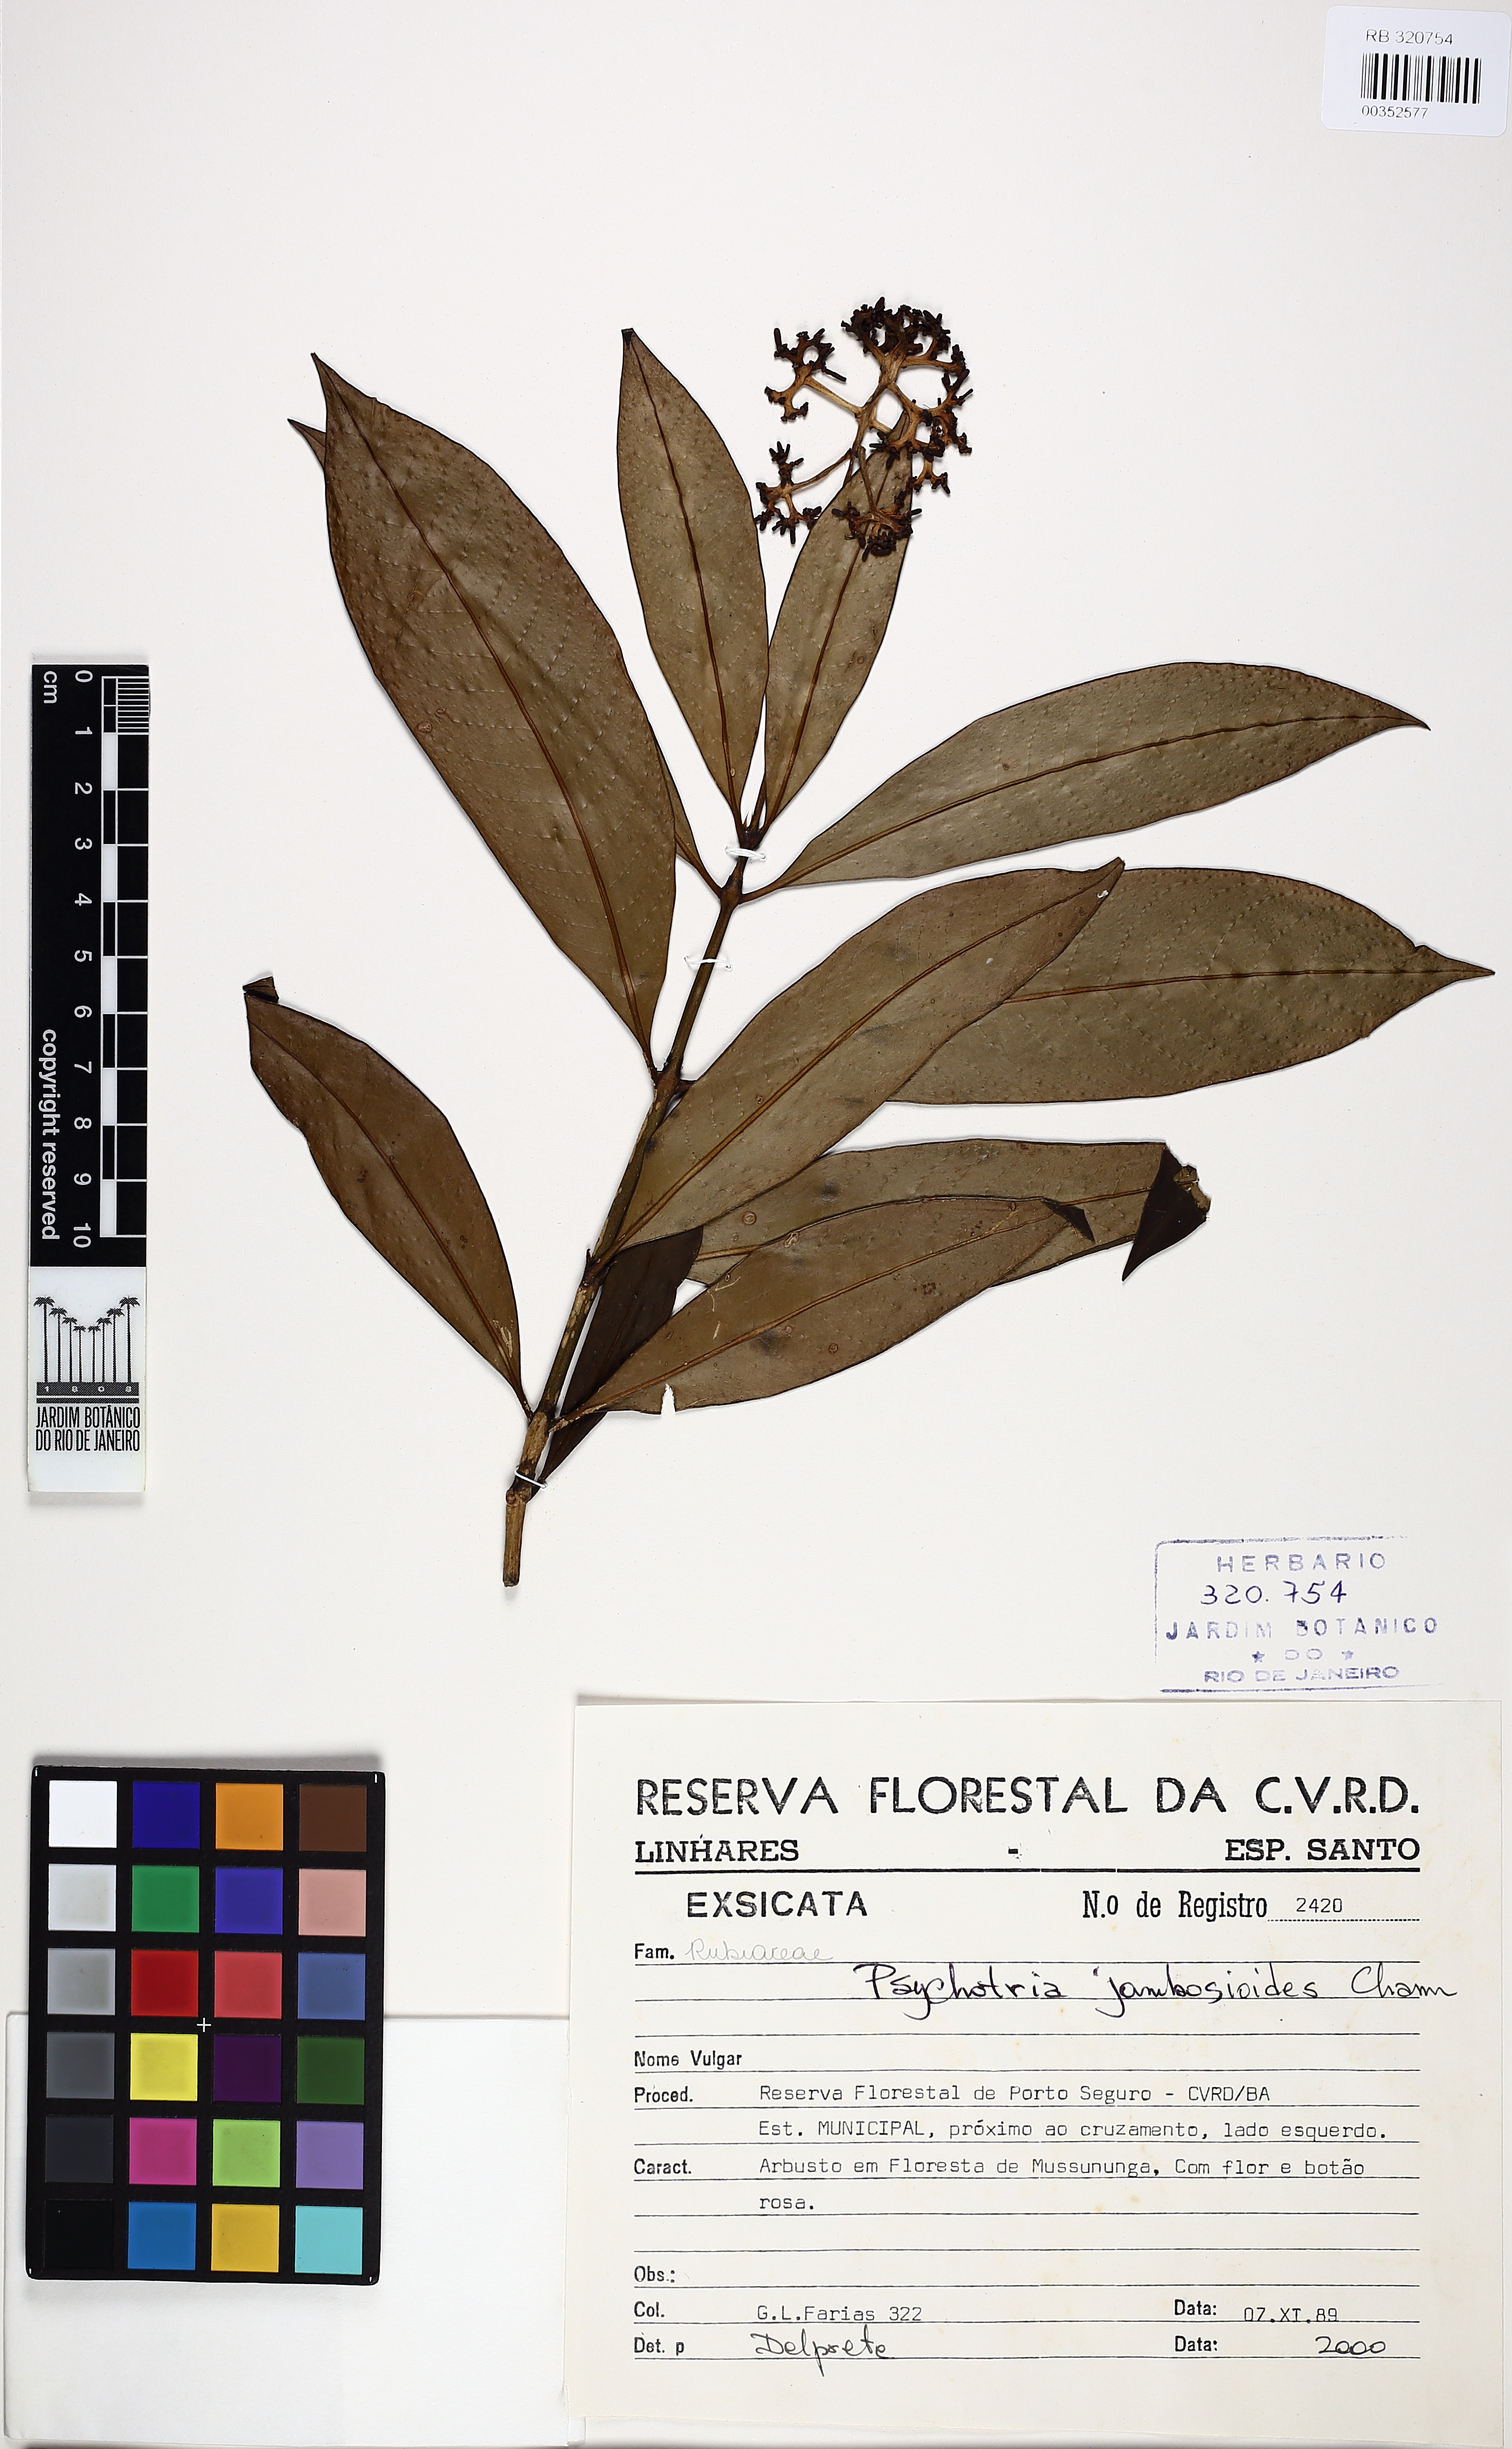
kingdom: Plantae
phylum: Tracheophyta
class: Magnoliopsida
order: Gentianales
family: Rubiaceae
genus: Palicourea
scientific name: Palicourea jambosioides
